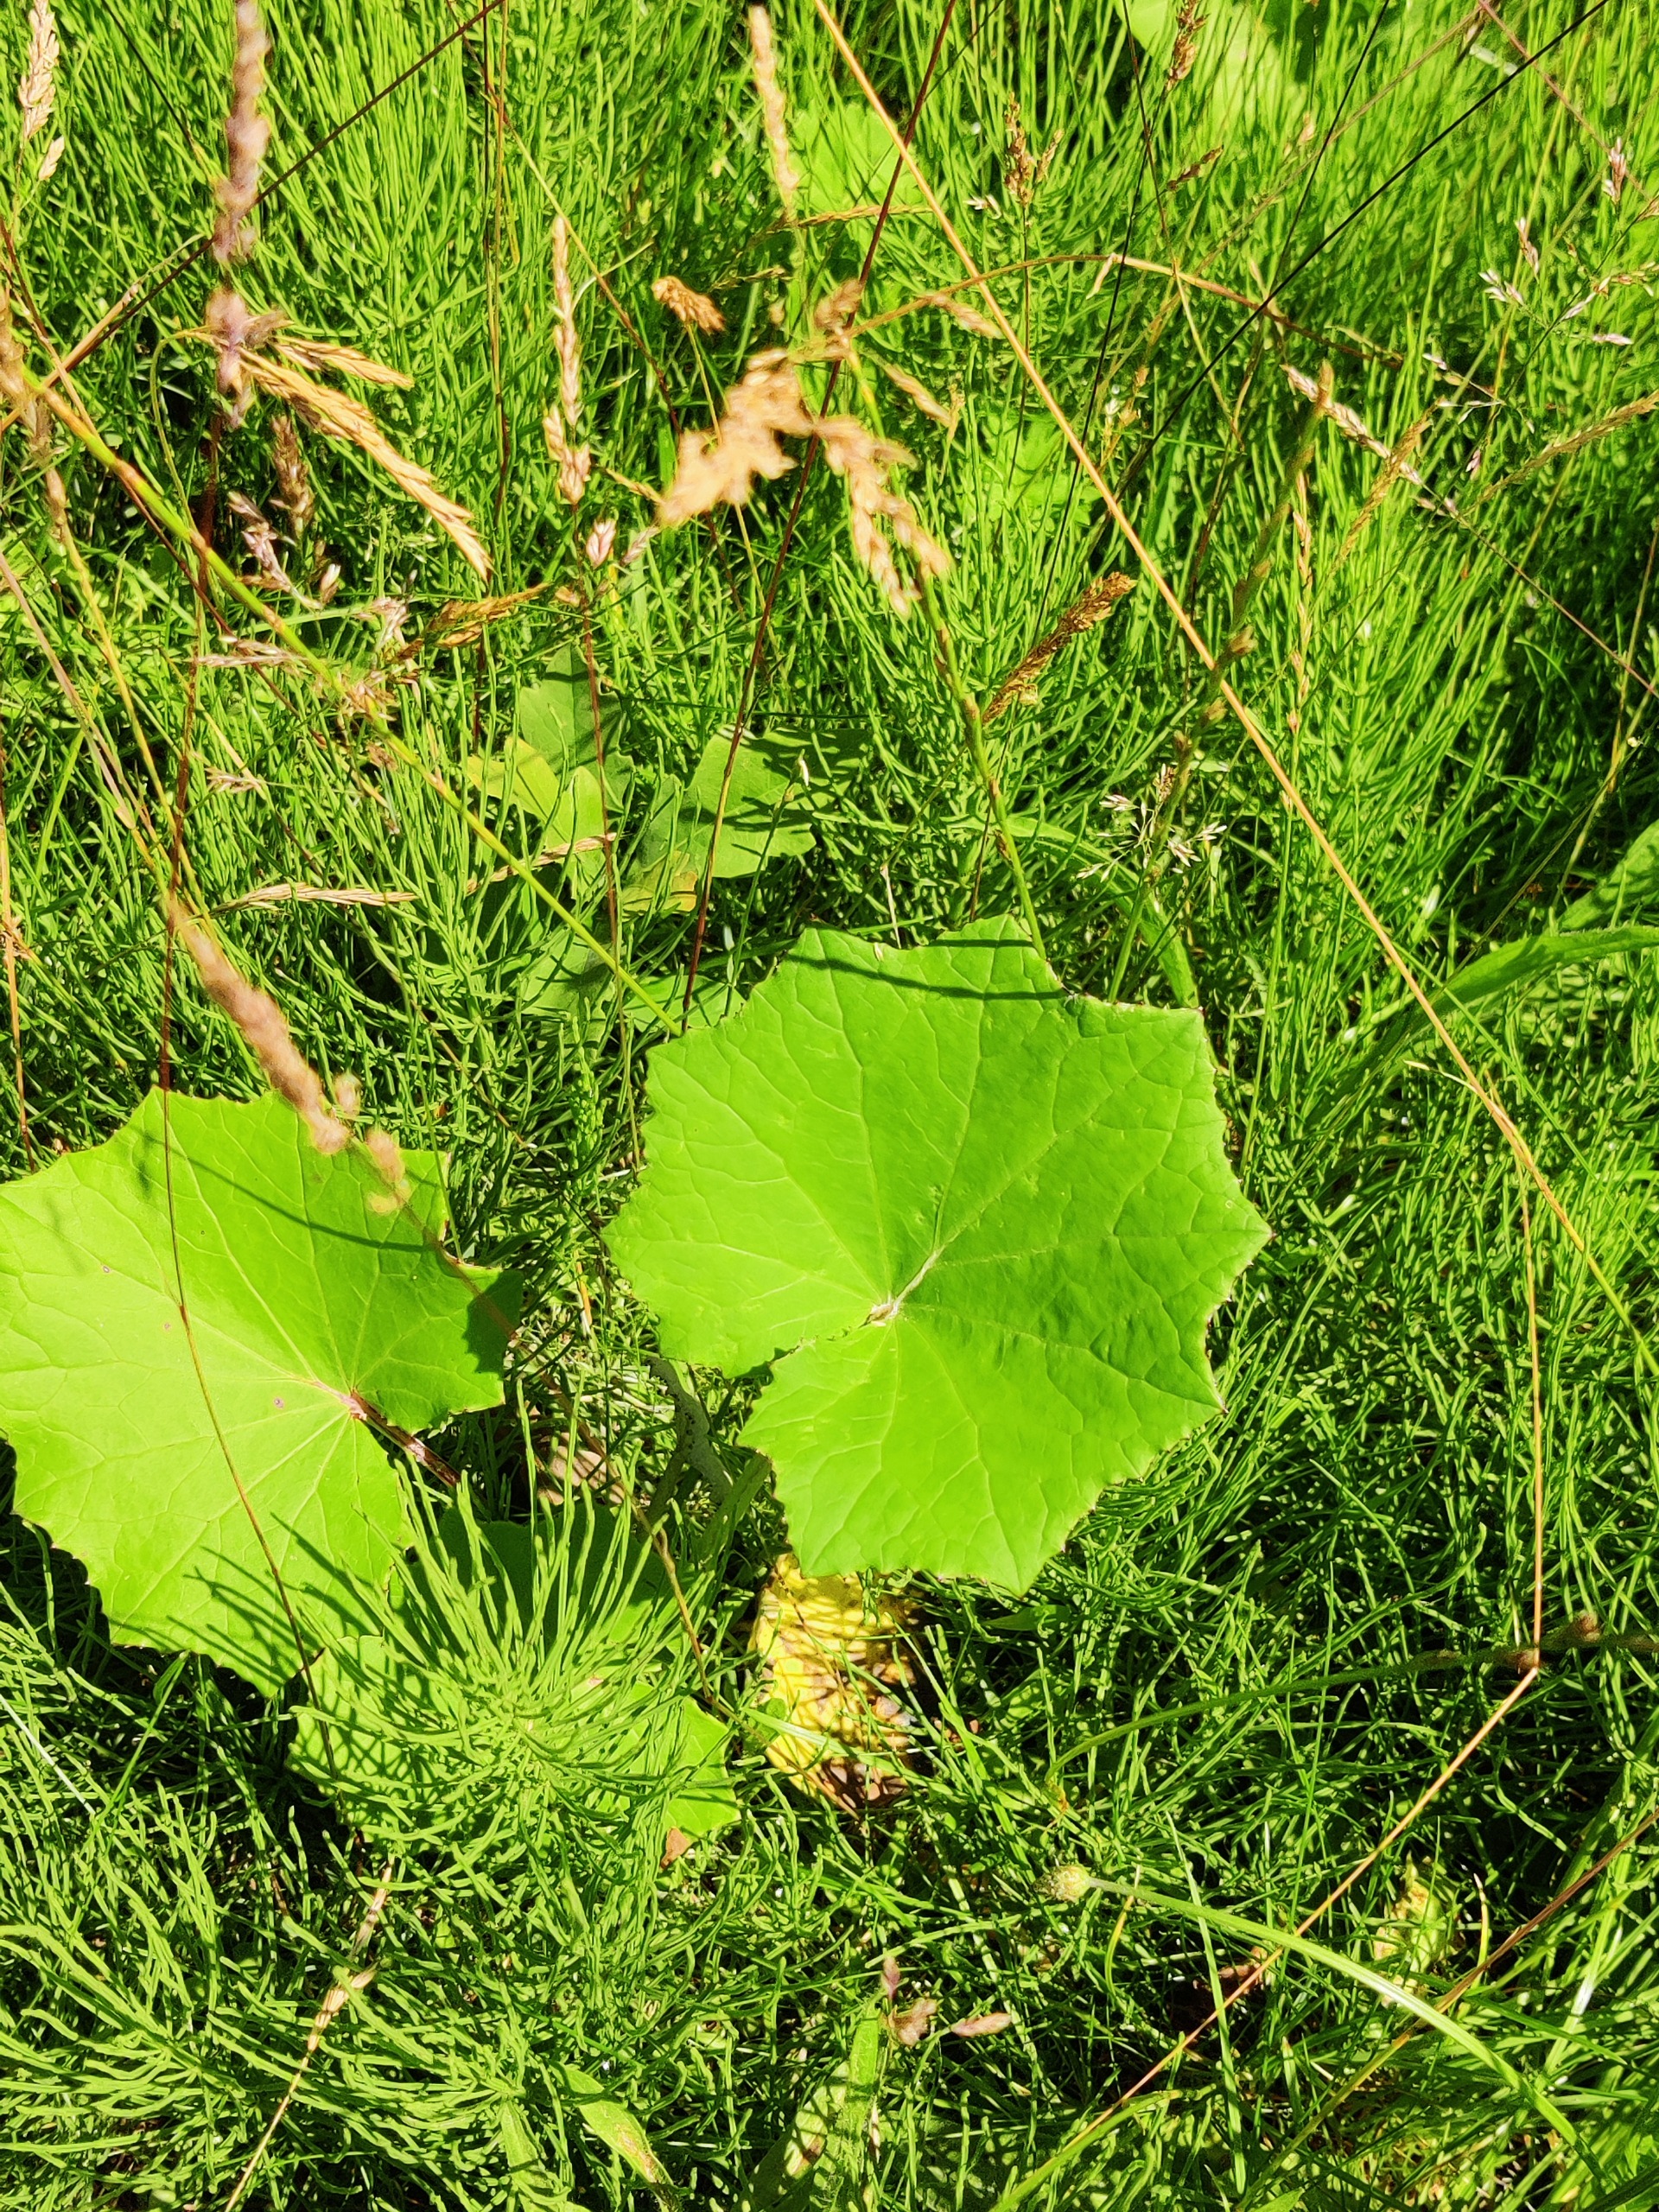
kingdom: Plantae
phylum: Tracheophyta
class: Magnoliopsida
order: Asterales
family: Asteraceae
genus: Tussilago
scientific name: Tussilago farfara
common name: Følfod
